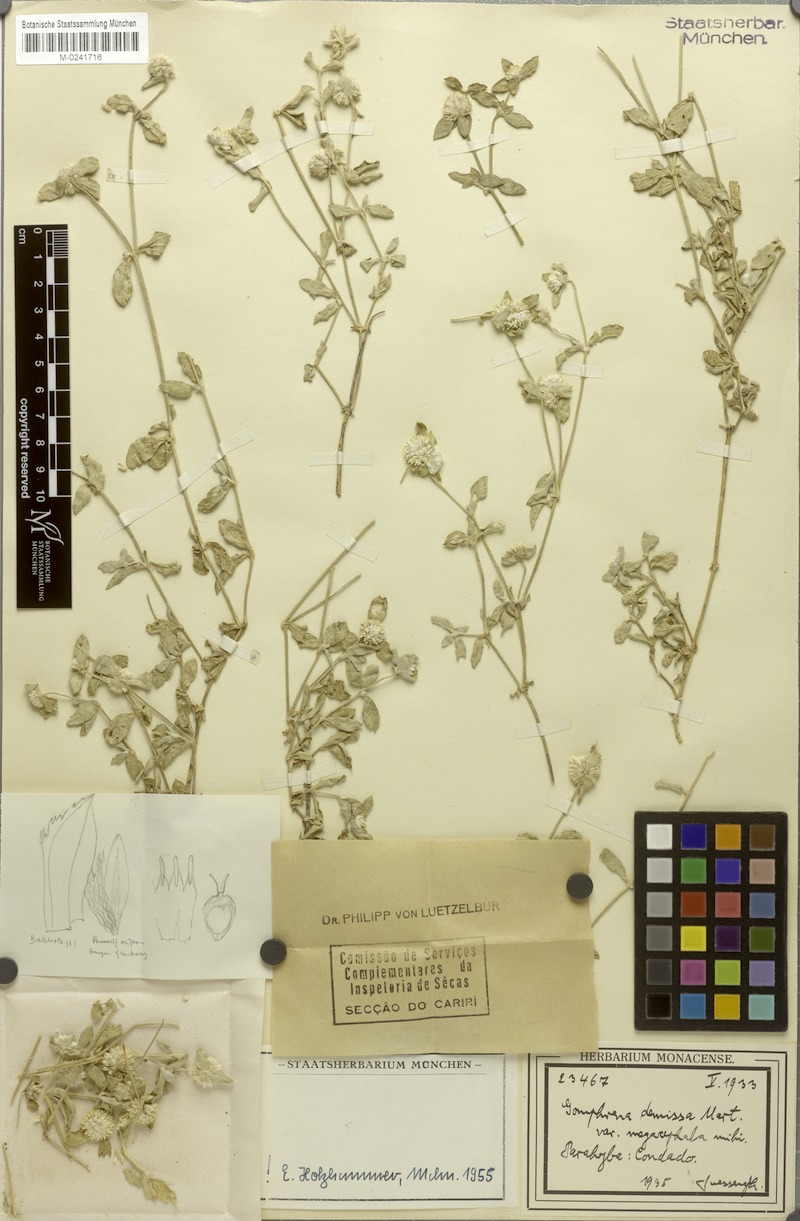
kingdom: Plantae
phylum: Tracheophyta
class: Magnoliopsida
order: Caryophyllales
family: Amaranthaceae
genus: Gomphrena
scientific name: Gomphrena demissa
